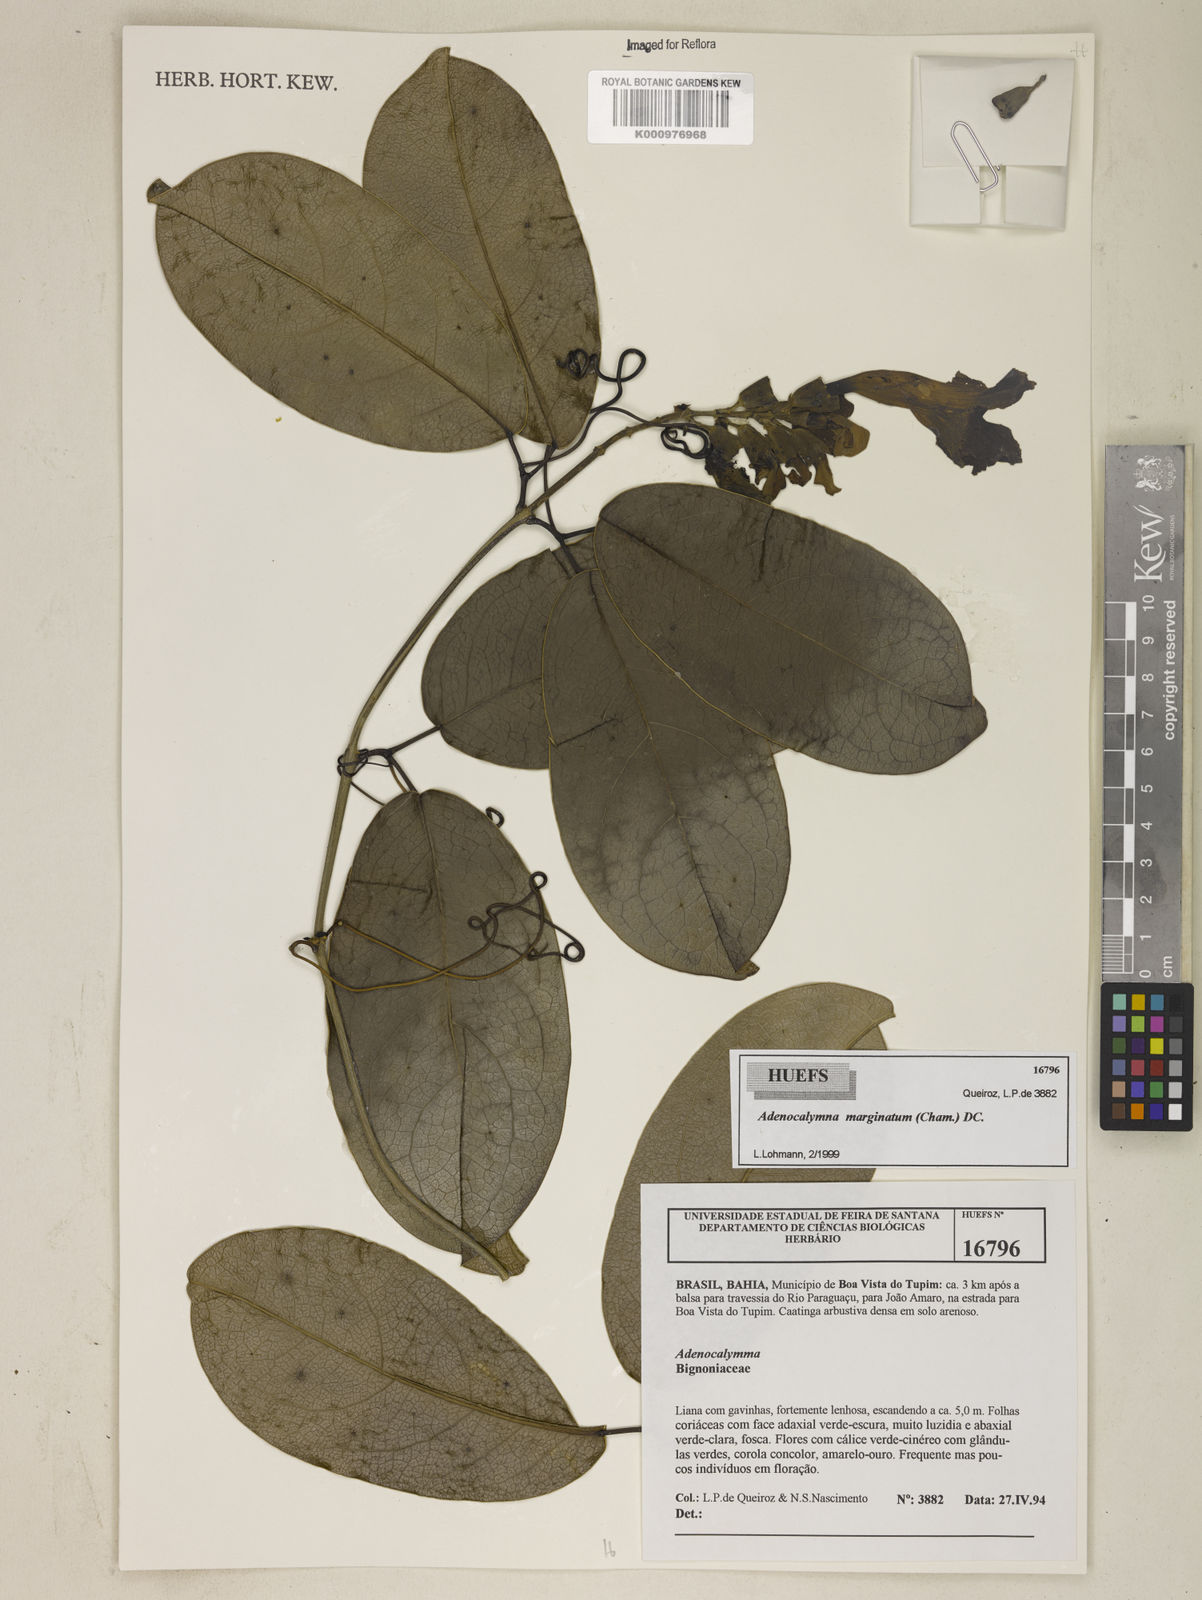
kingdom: Plantae
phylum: Tracheophyta
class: Magnoliopsida
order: Lamiales
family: Bignoniaceae
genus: Adenocalymma
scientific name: Adenocalymma marginatum
